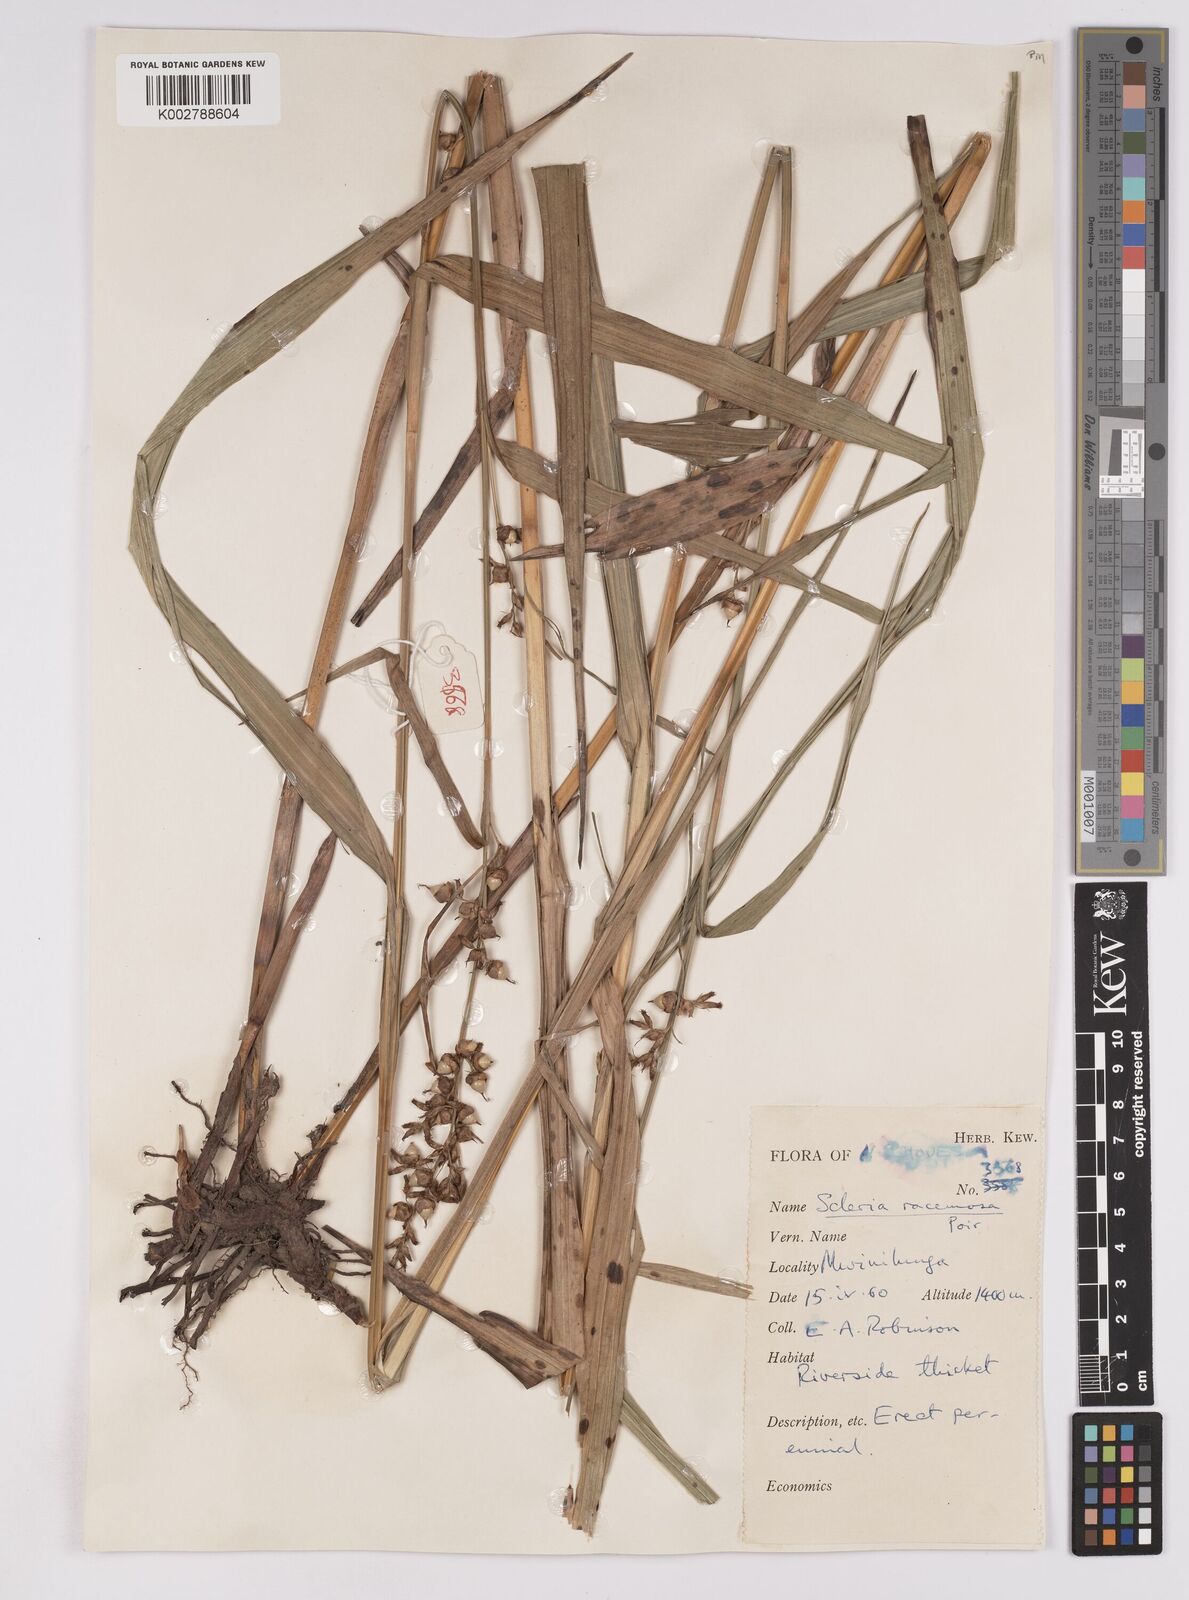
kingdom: Plantae
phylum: Tracheophyta
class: Liliopsida
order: Poales
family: Cyperaceae
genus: Scleria
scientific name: Scleria racemosa
